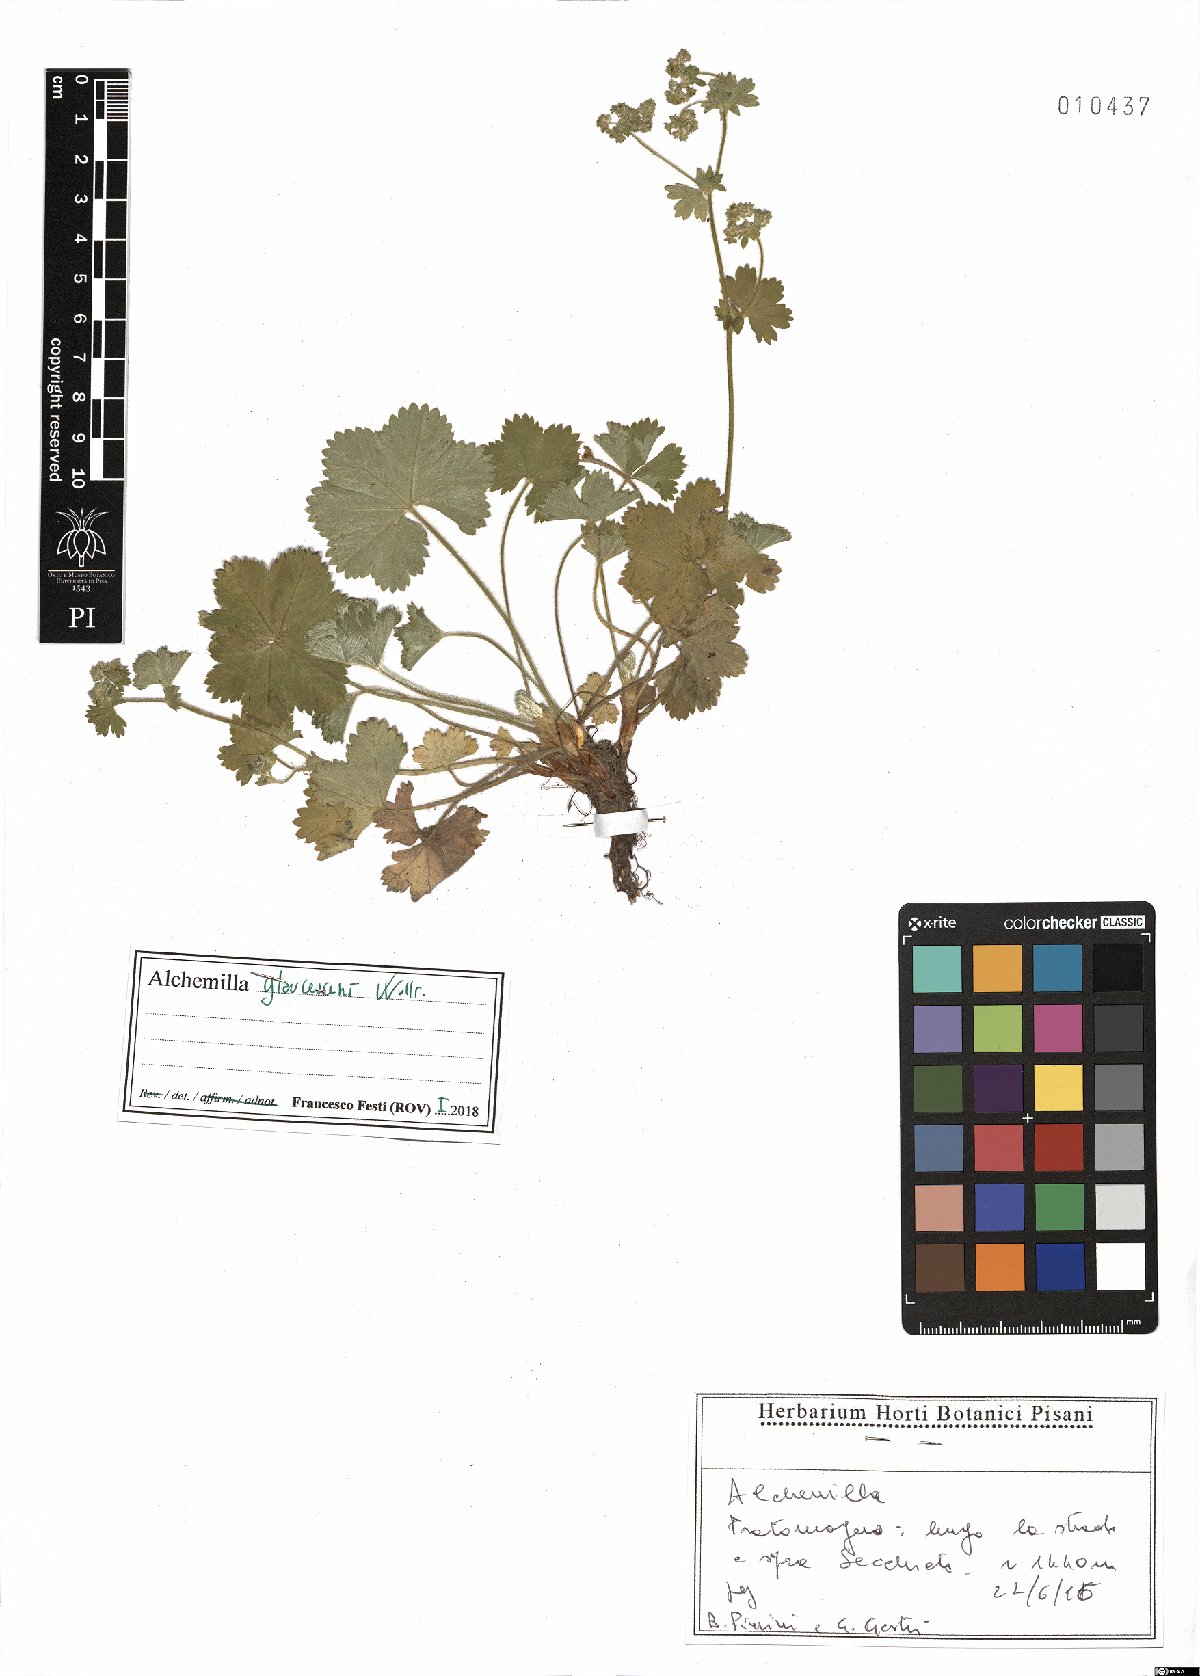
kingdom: Plantae
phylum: Tracheophyta
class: Magnoliopsida
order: Rosales
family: Rosaceae
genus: Alchemilla
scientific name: Alchemilla glaucescens
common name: Silky lady's mantle
